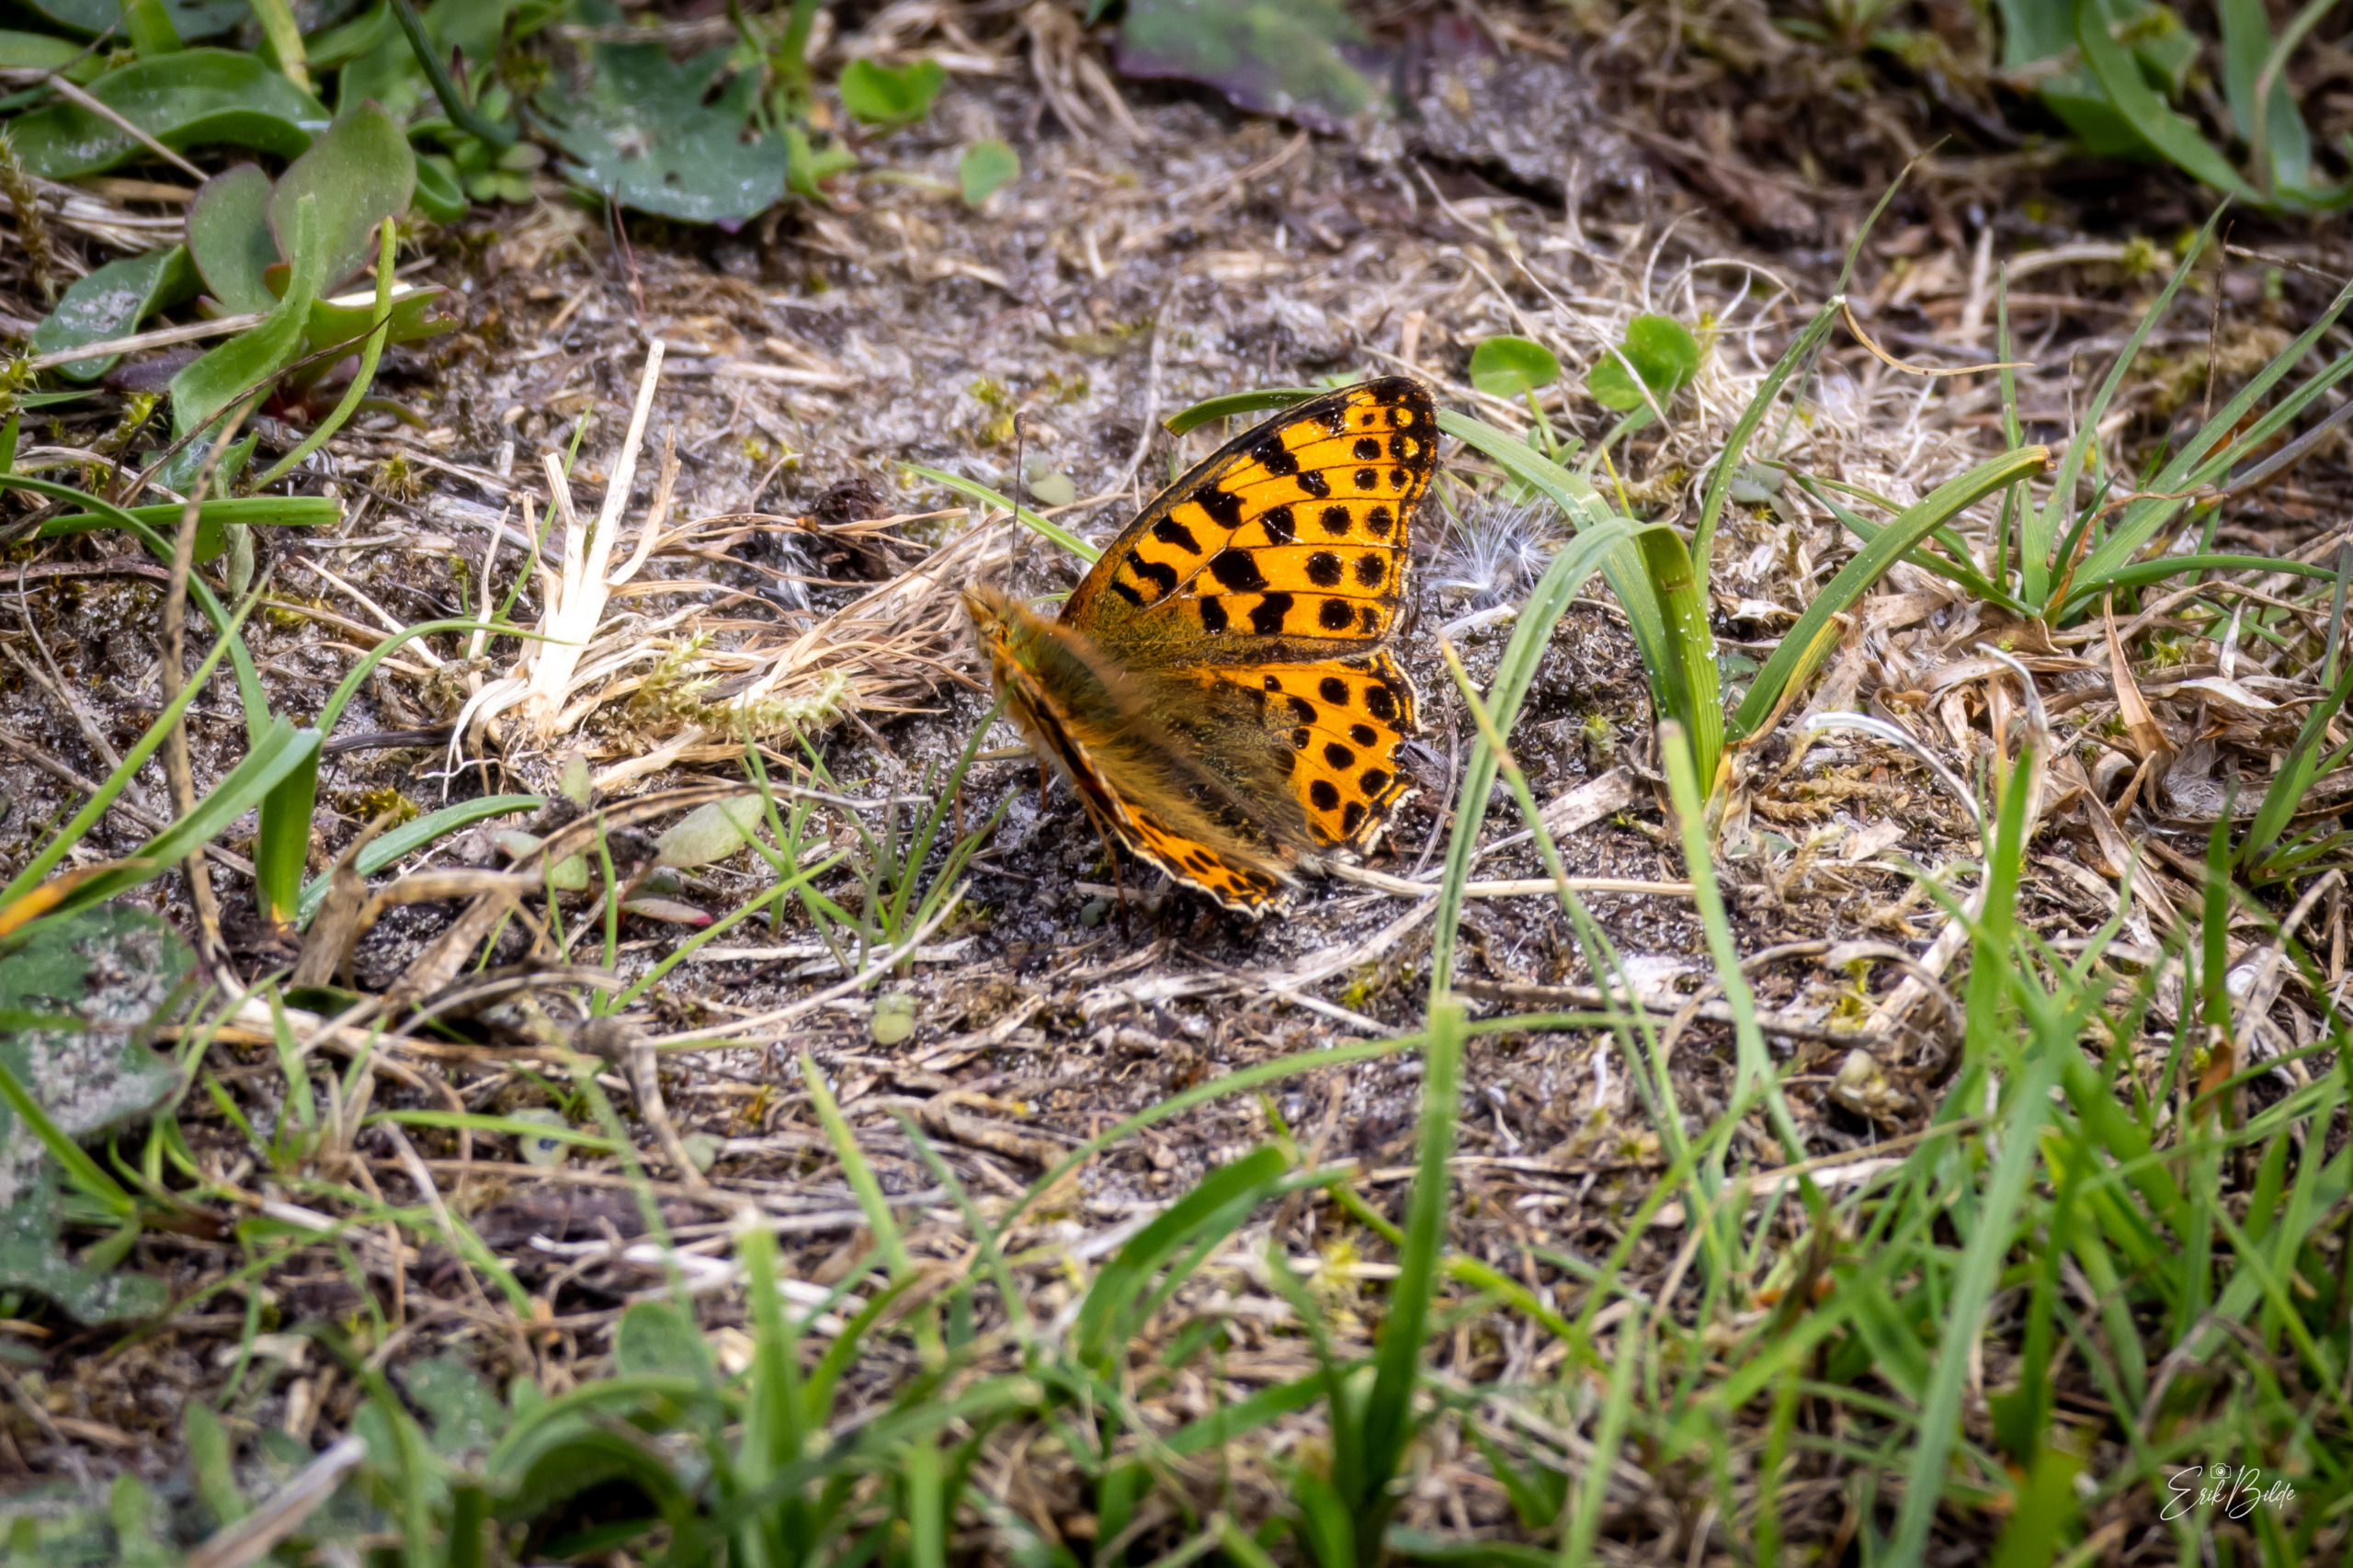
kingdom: Animalia
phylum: Arthropoda
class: Insecta
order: Lepidoptera
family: Nymphalidae
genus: Issoria
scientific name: Issoria lathonia
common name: Storplettet perlemorsommerfugl
